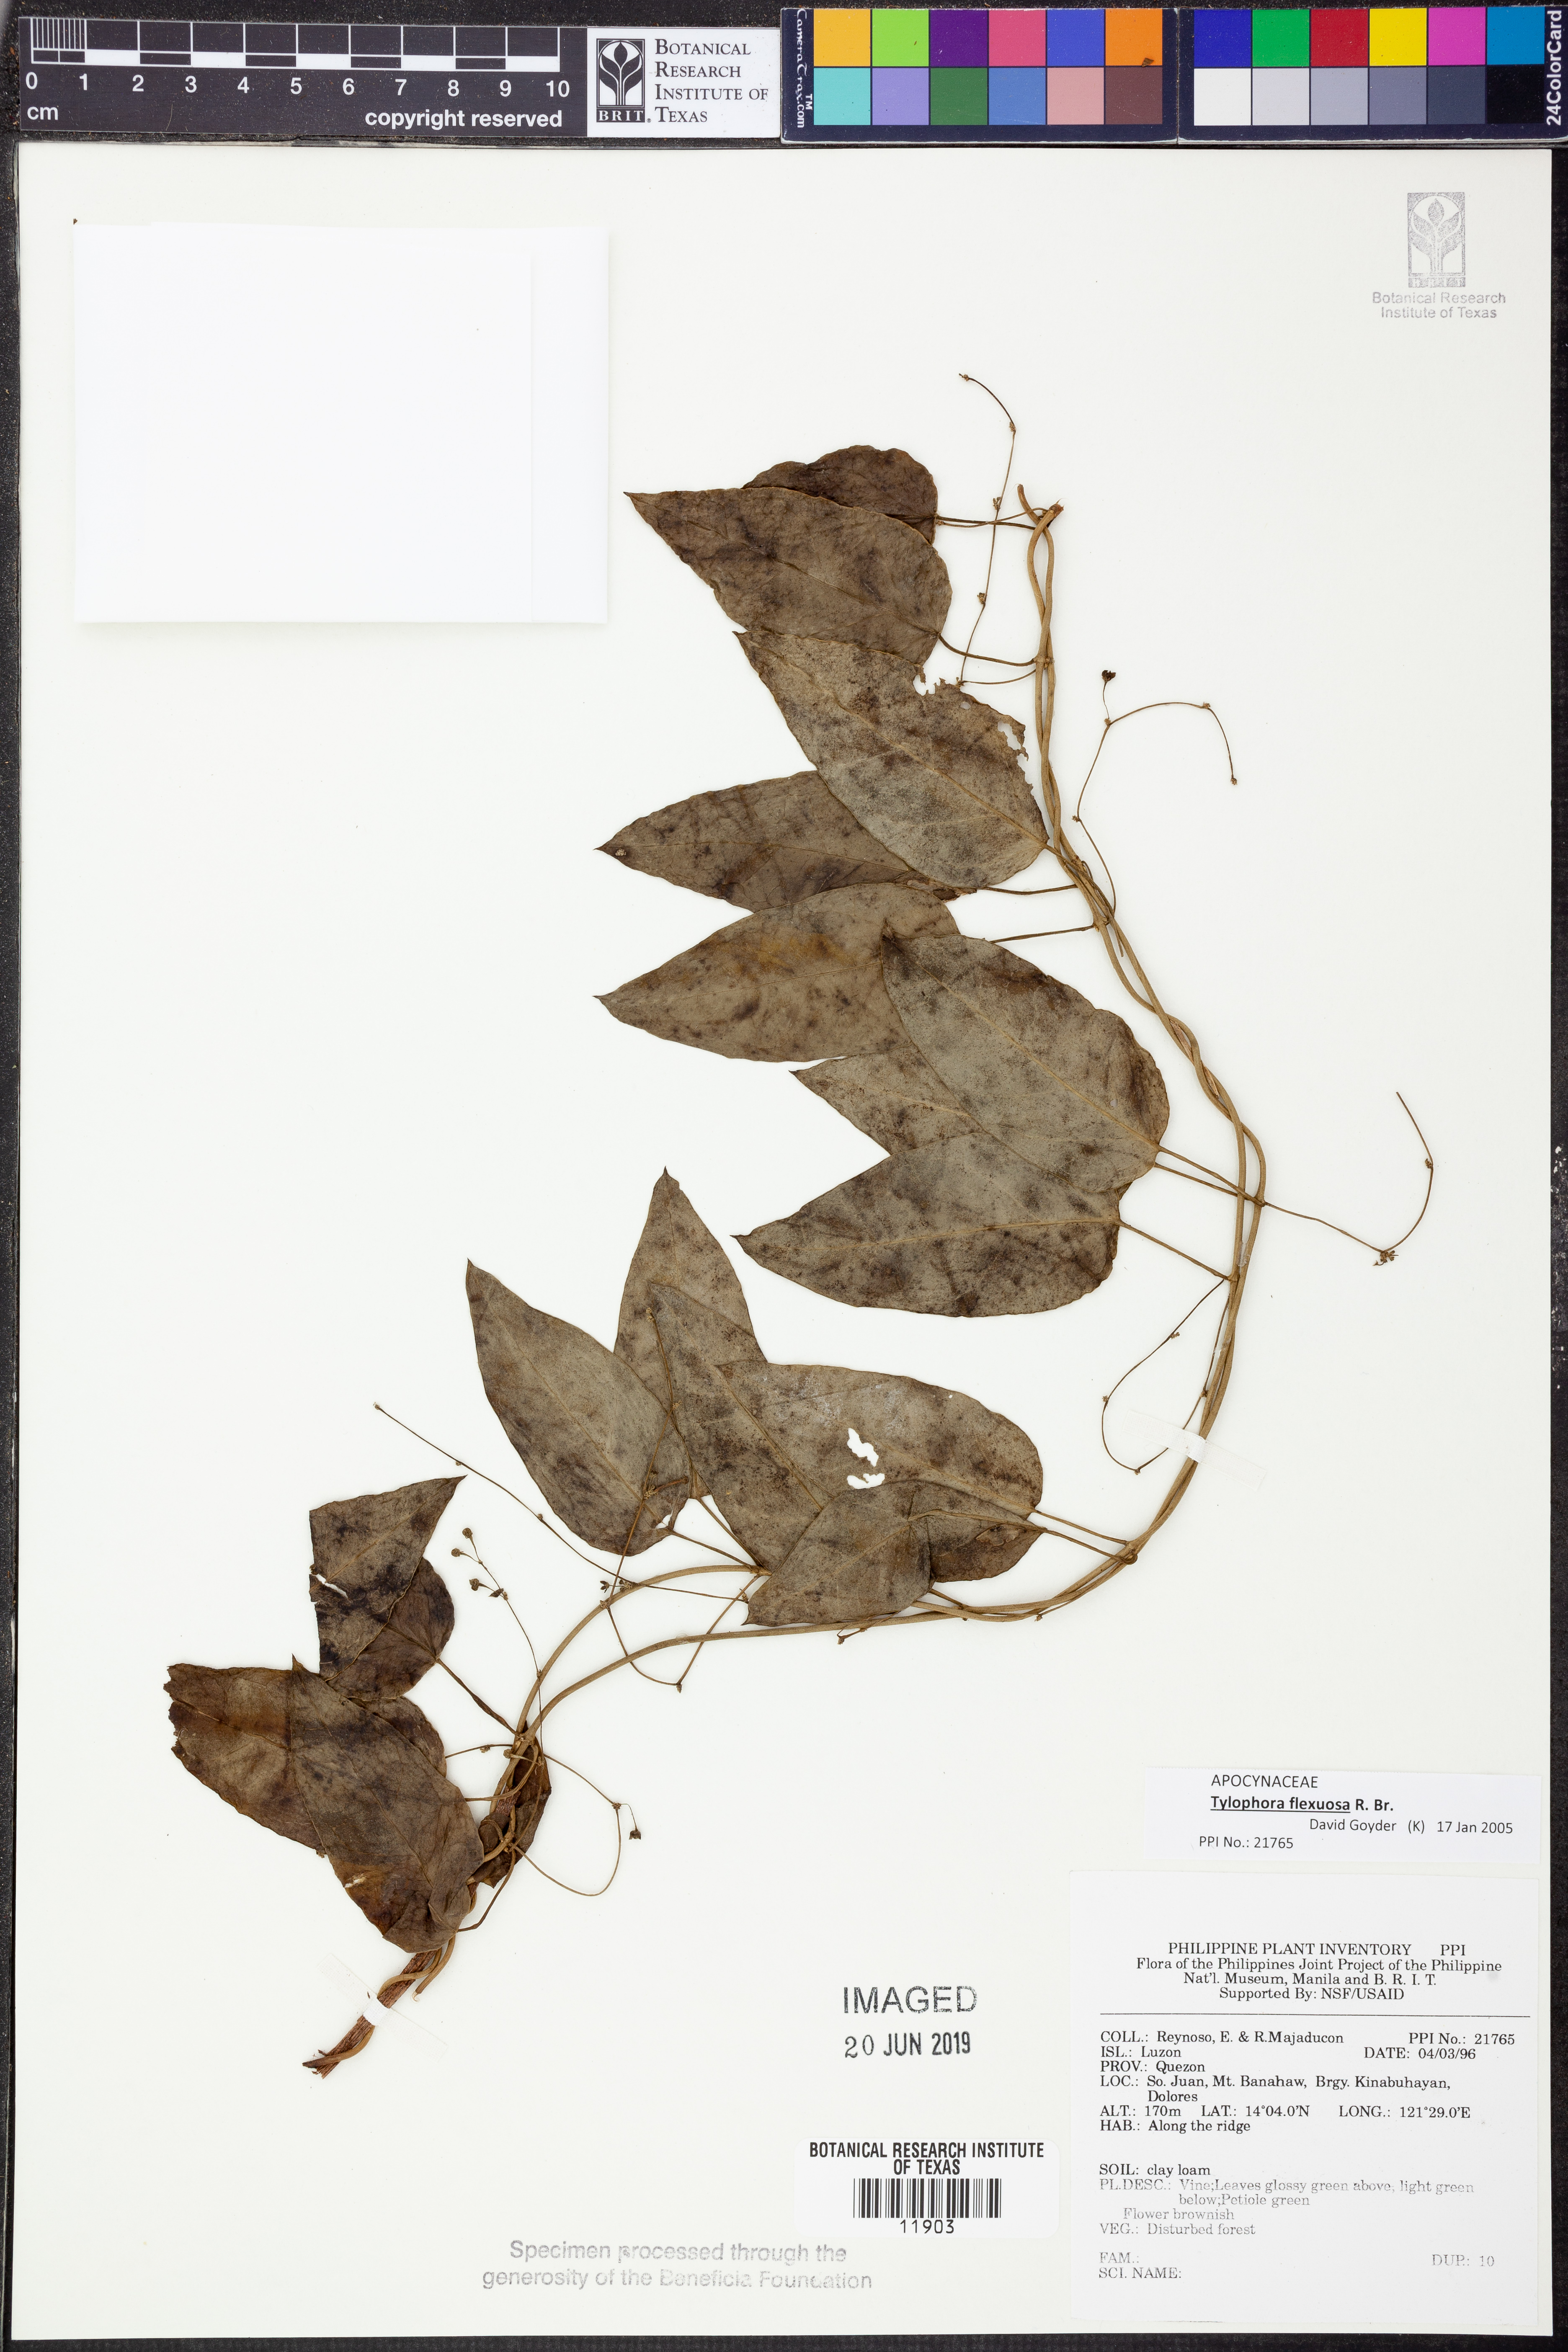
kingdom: Plantae
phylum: Tracheophyta
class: Magnoliopsida
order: Gentianales
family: Apocynaceae
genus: Vincetoxicum
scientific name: Vincetoxicum flexuosum
